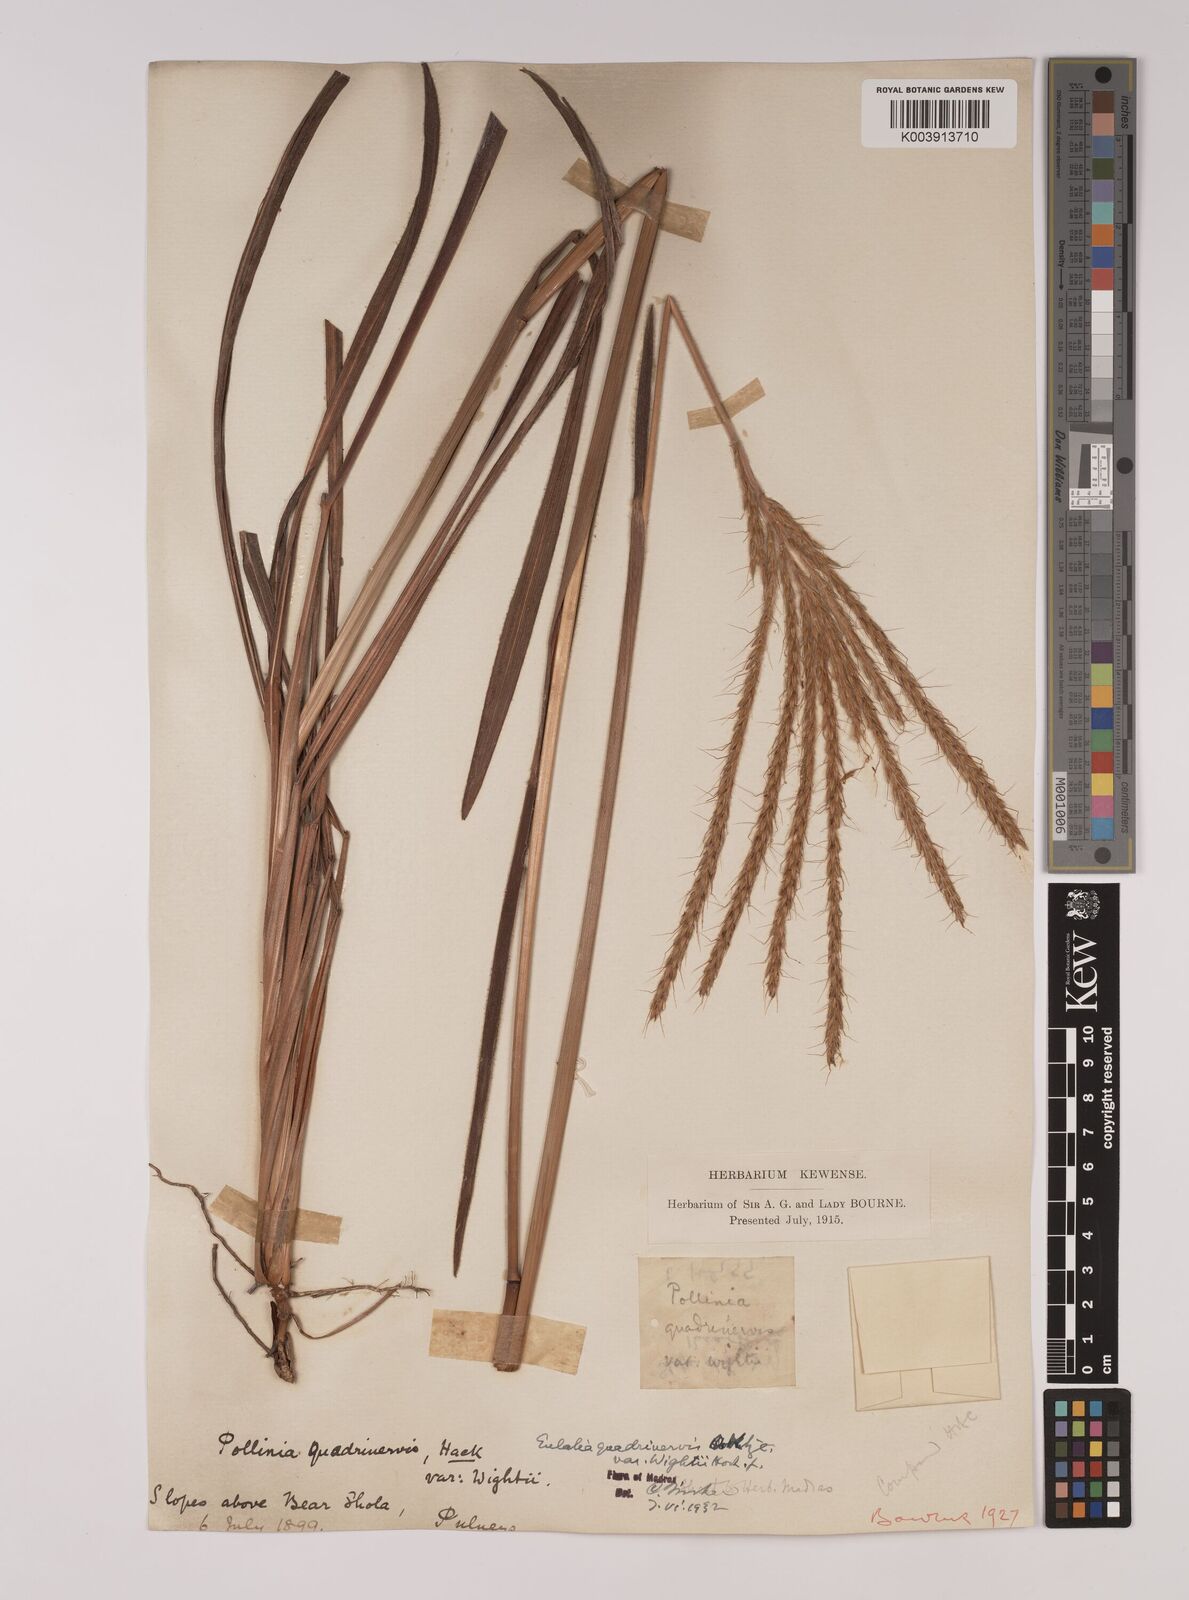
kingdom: Plantae
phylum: Tracheophyta
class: Liliopsida
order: Poales
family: Poaceae
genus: Eulalia
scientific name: Eulalia villosa
